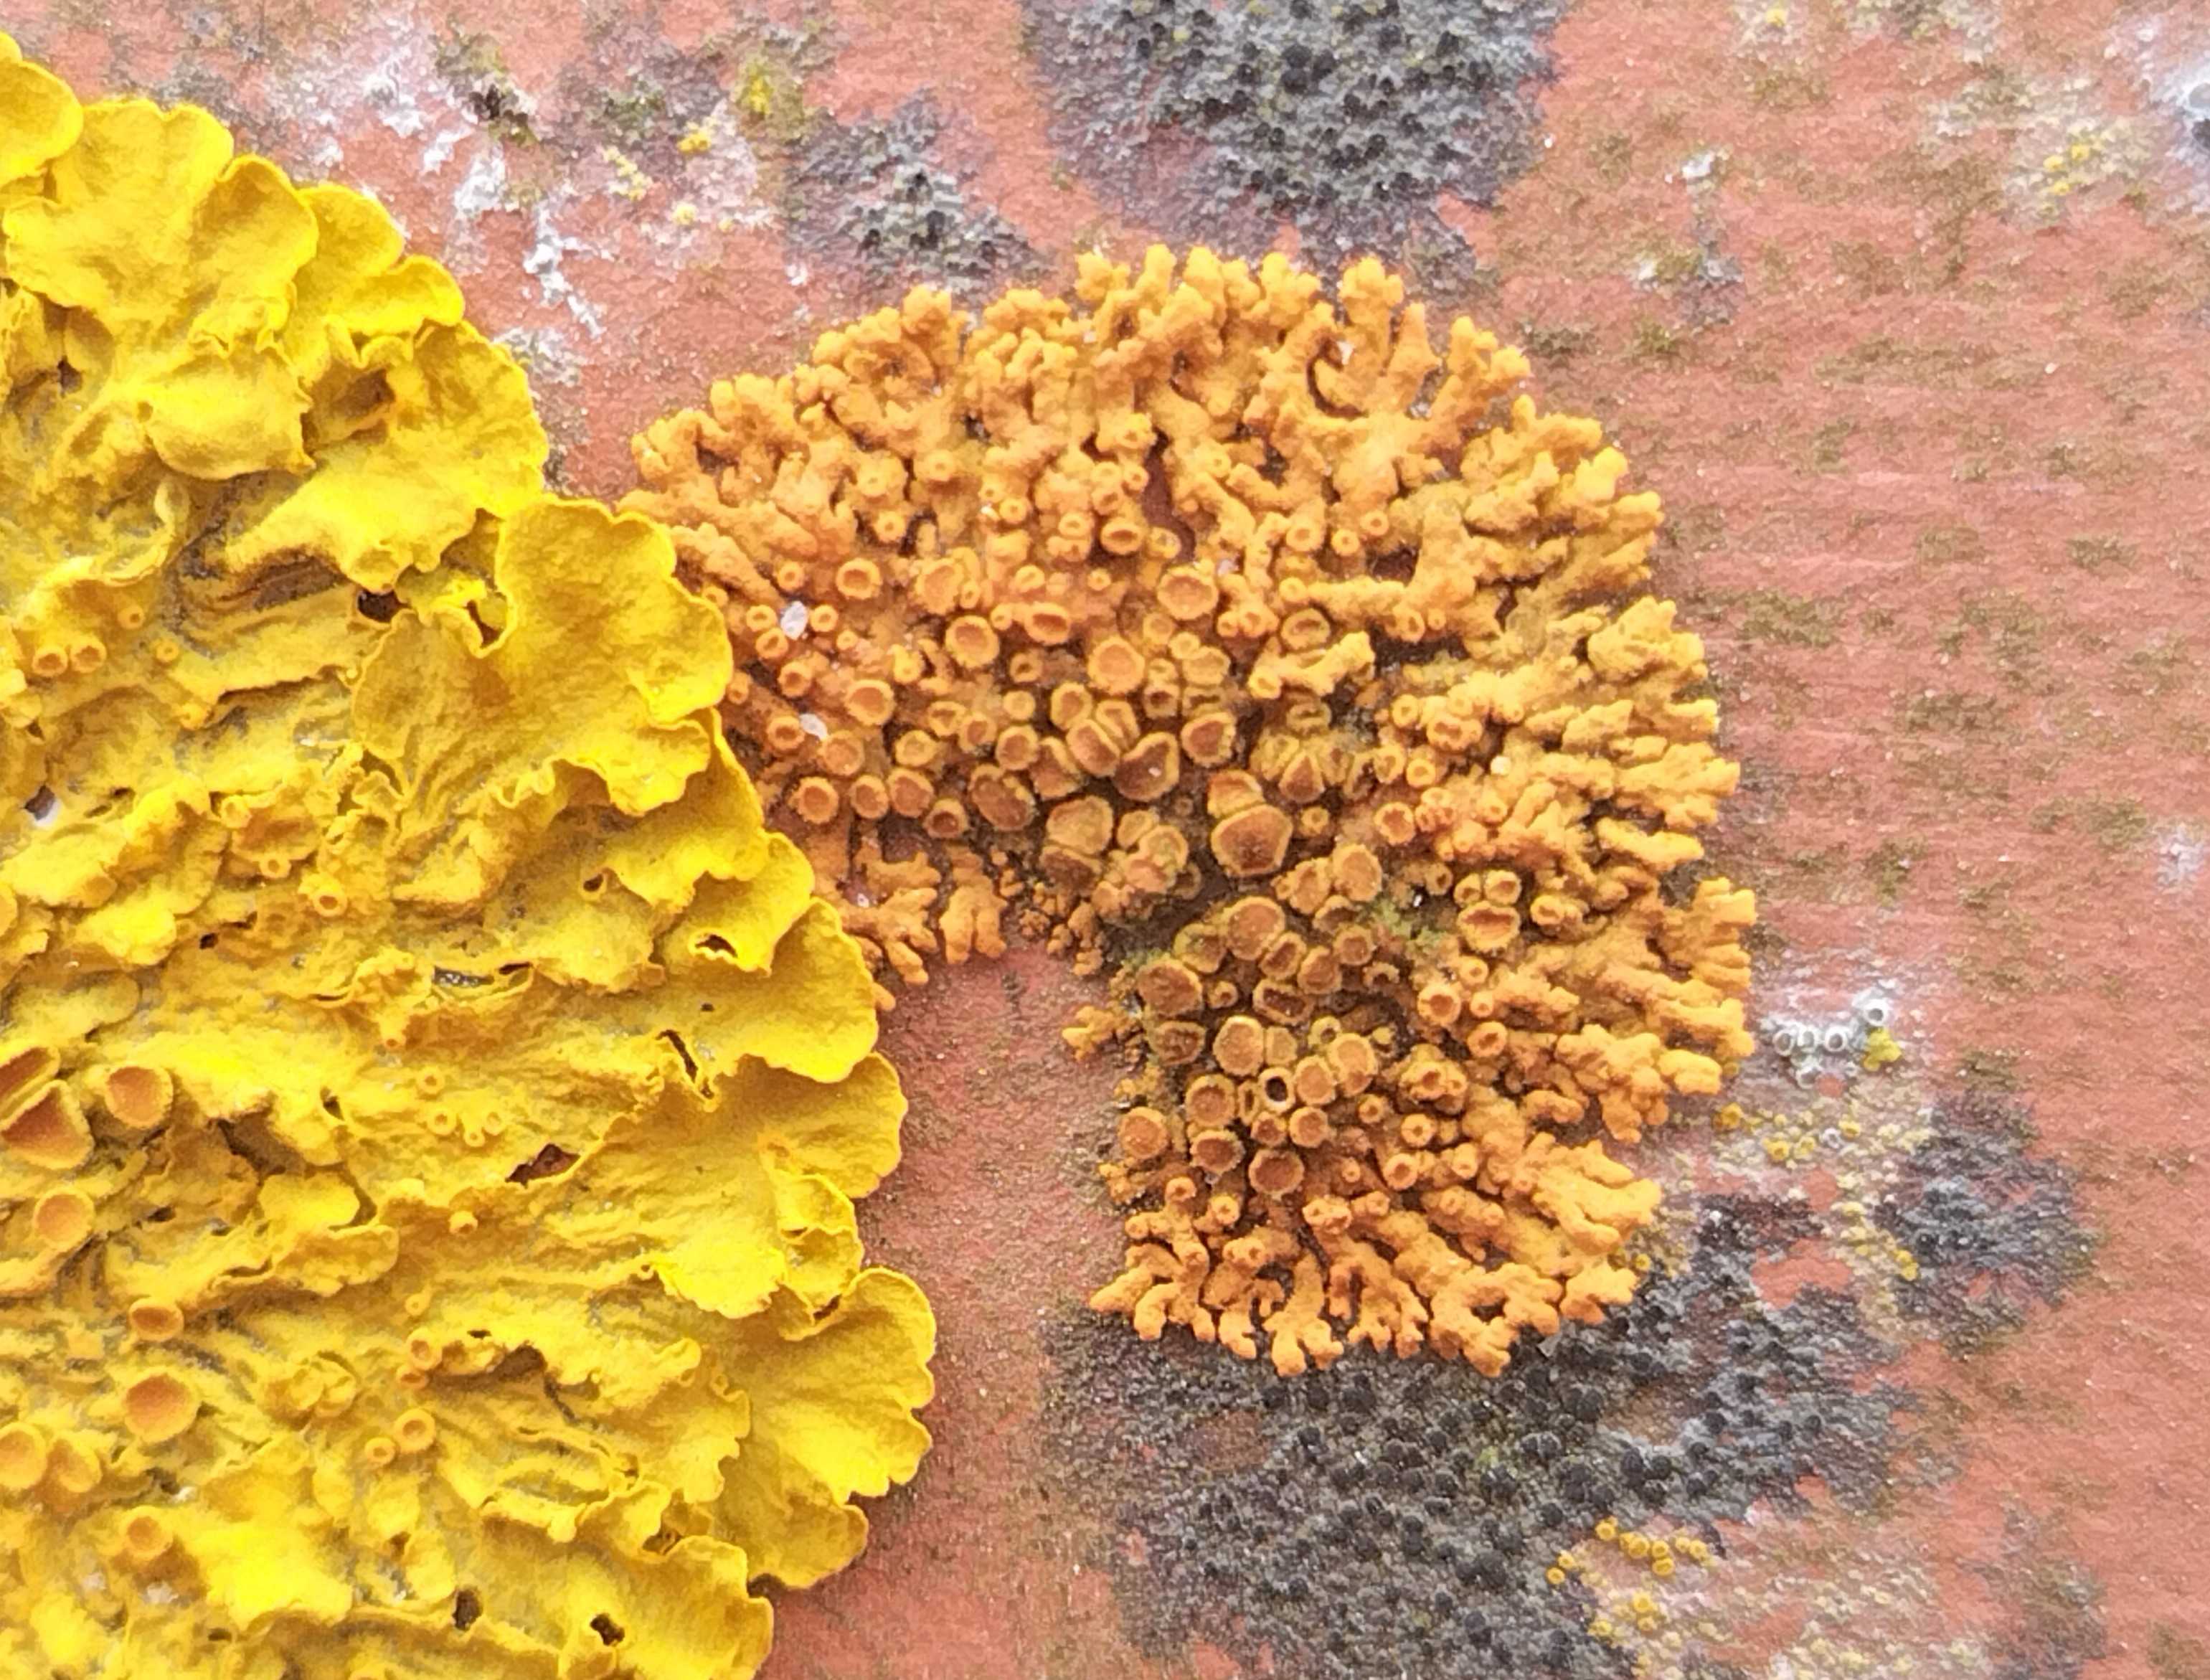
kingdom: Fungi
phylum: Ascomycota
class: Lecanoromycetes
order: Teloschistales
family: Teloschistaceae
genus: Xanthoria
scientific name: Xanthoria elegans
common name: fjeld-væggelav
